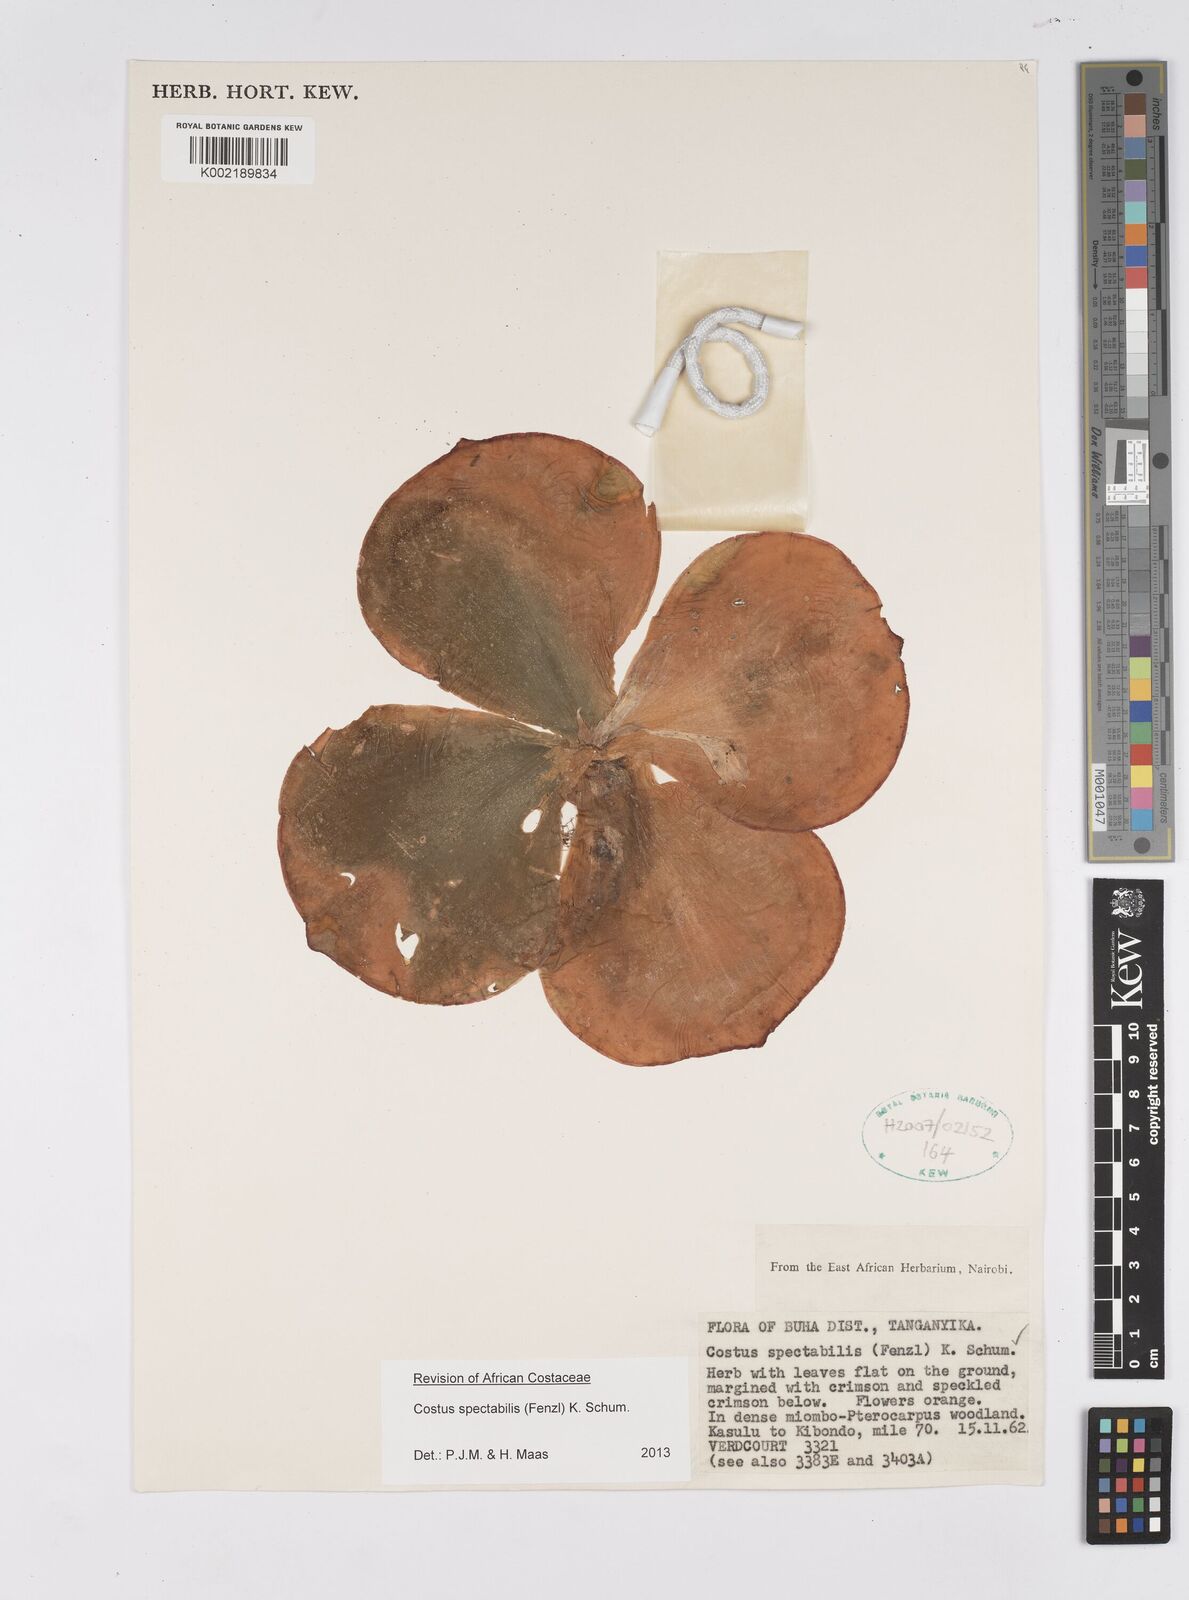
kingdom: Plantae
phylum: Tracheophyta
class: Liliopsida
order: Zingiberales
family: Costaceae
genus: Costus
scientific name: Costus spectabilis
